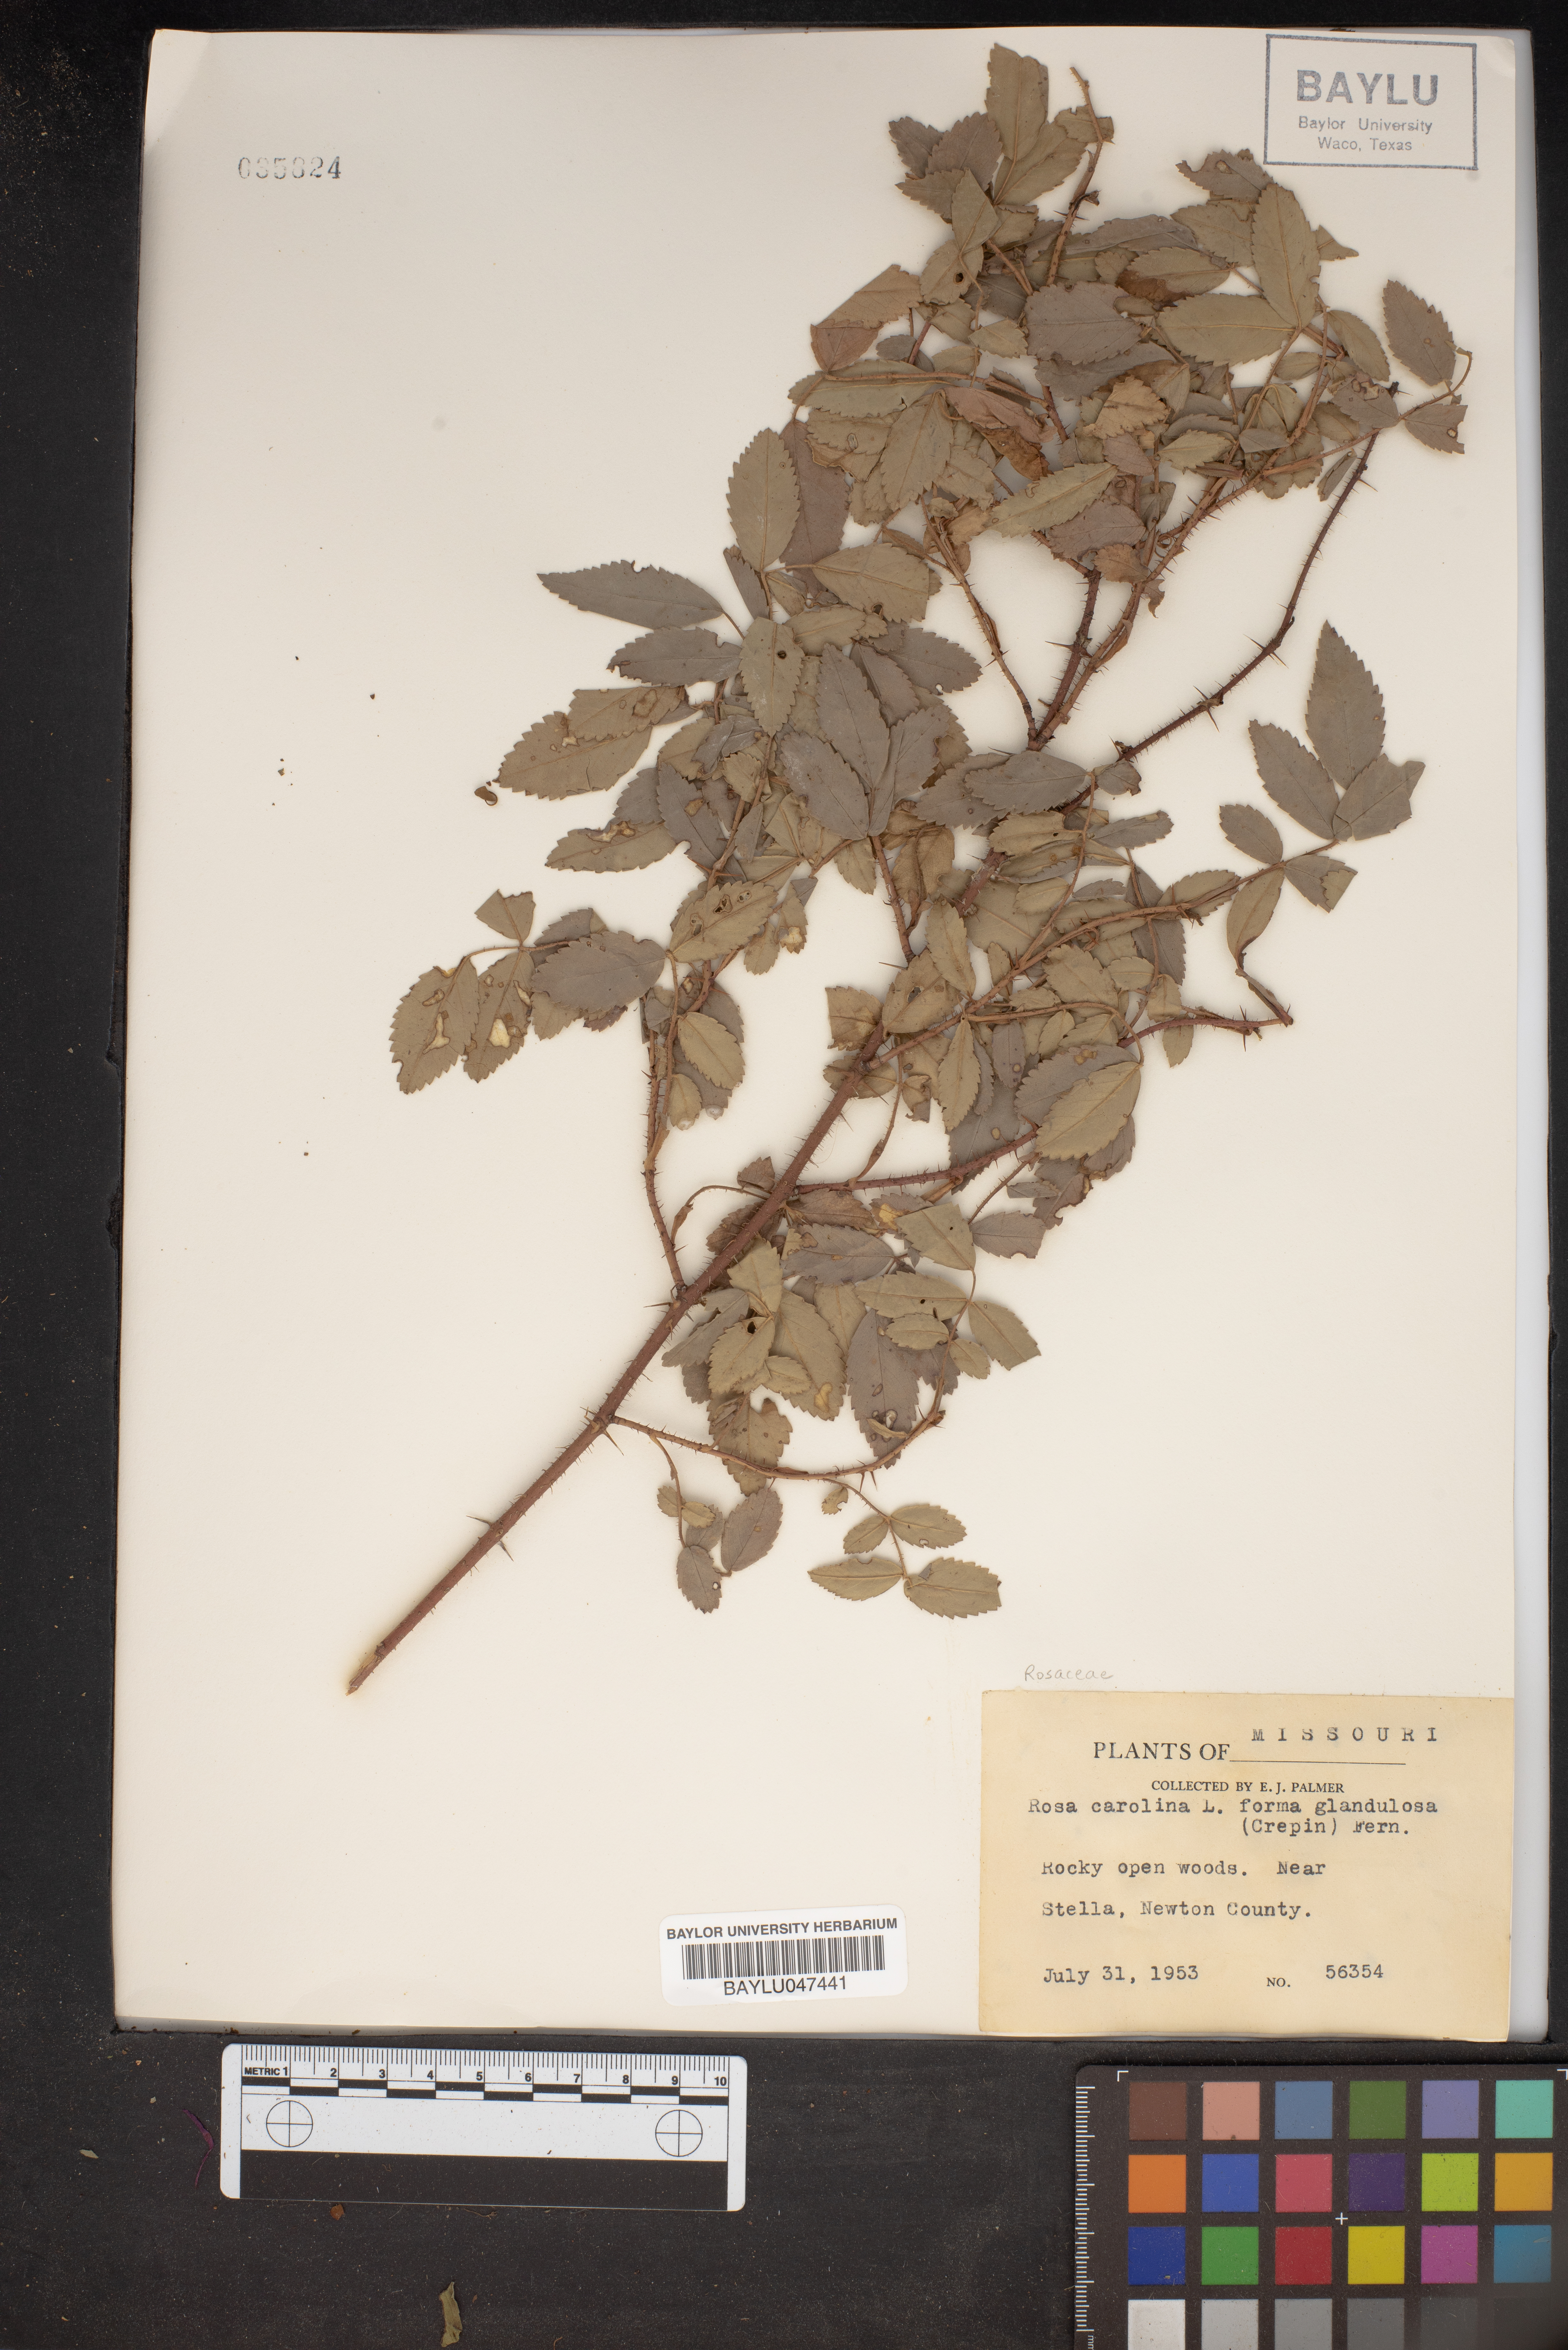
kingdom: Plantae
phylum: Tracheophyta
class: Magnoliopsida
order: Rosales
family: Rosaceae
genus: Rosa
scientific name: Rosa carolina
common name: Pasture rose
